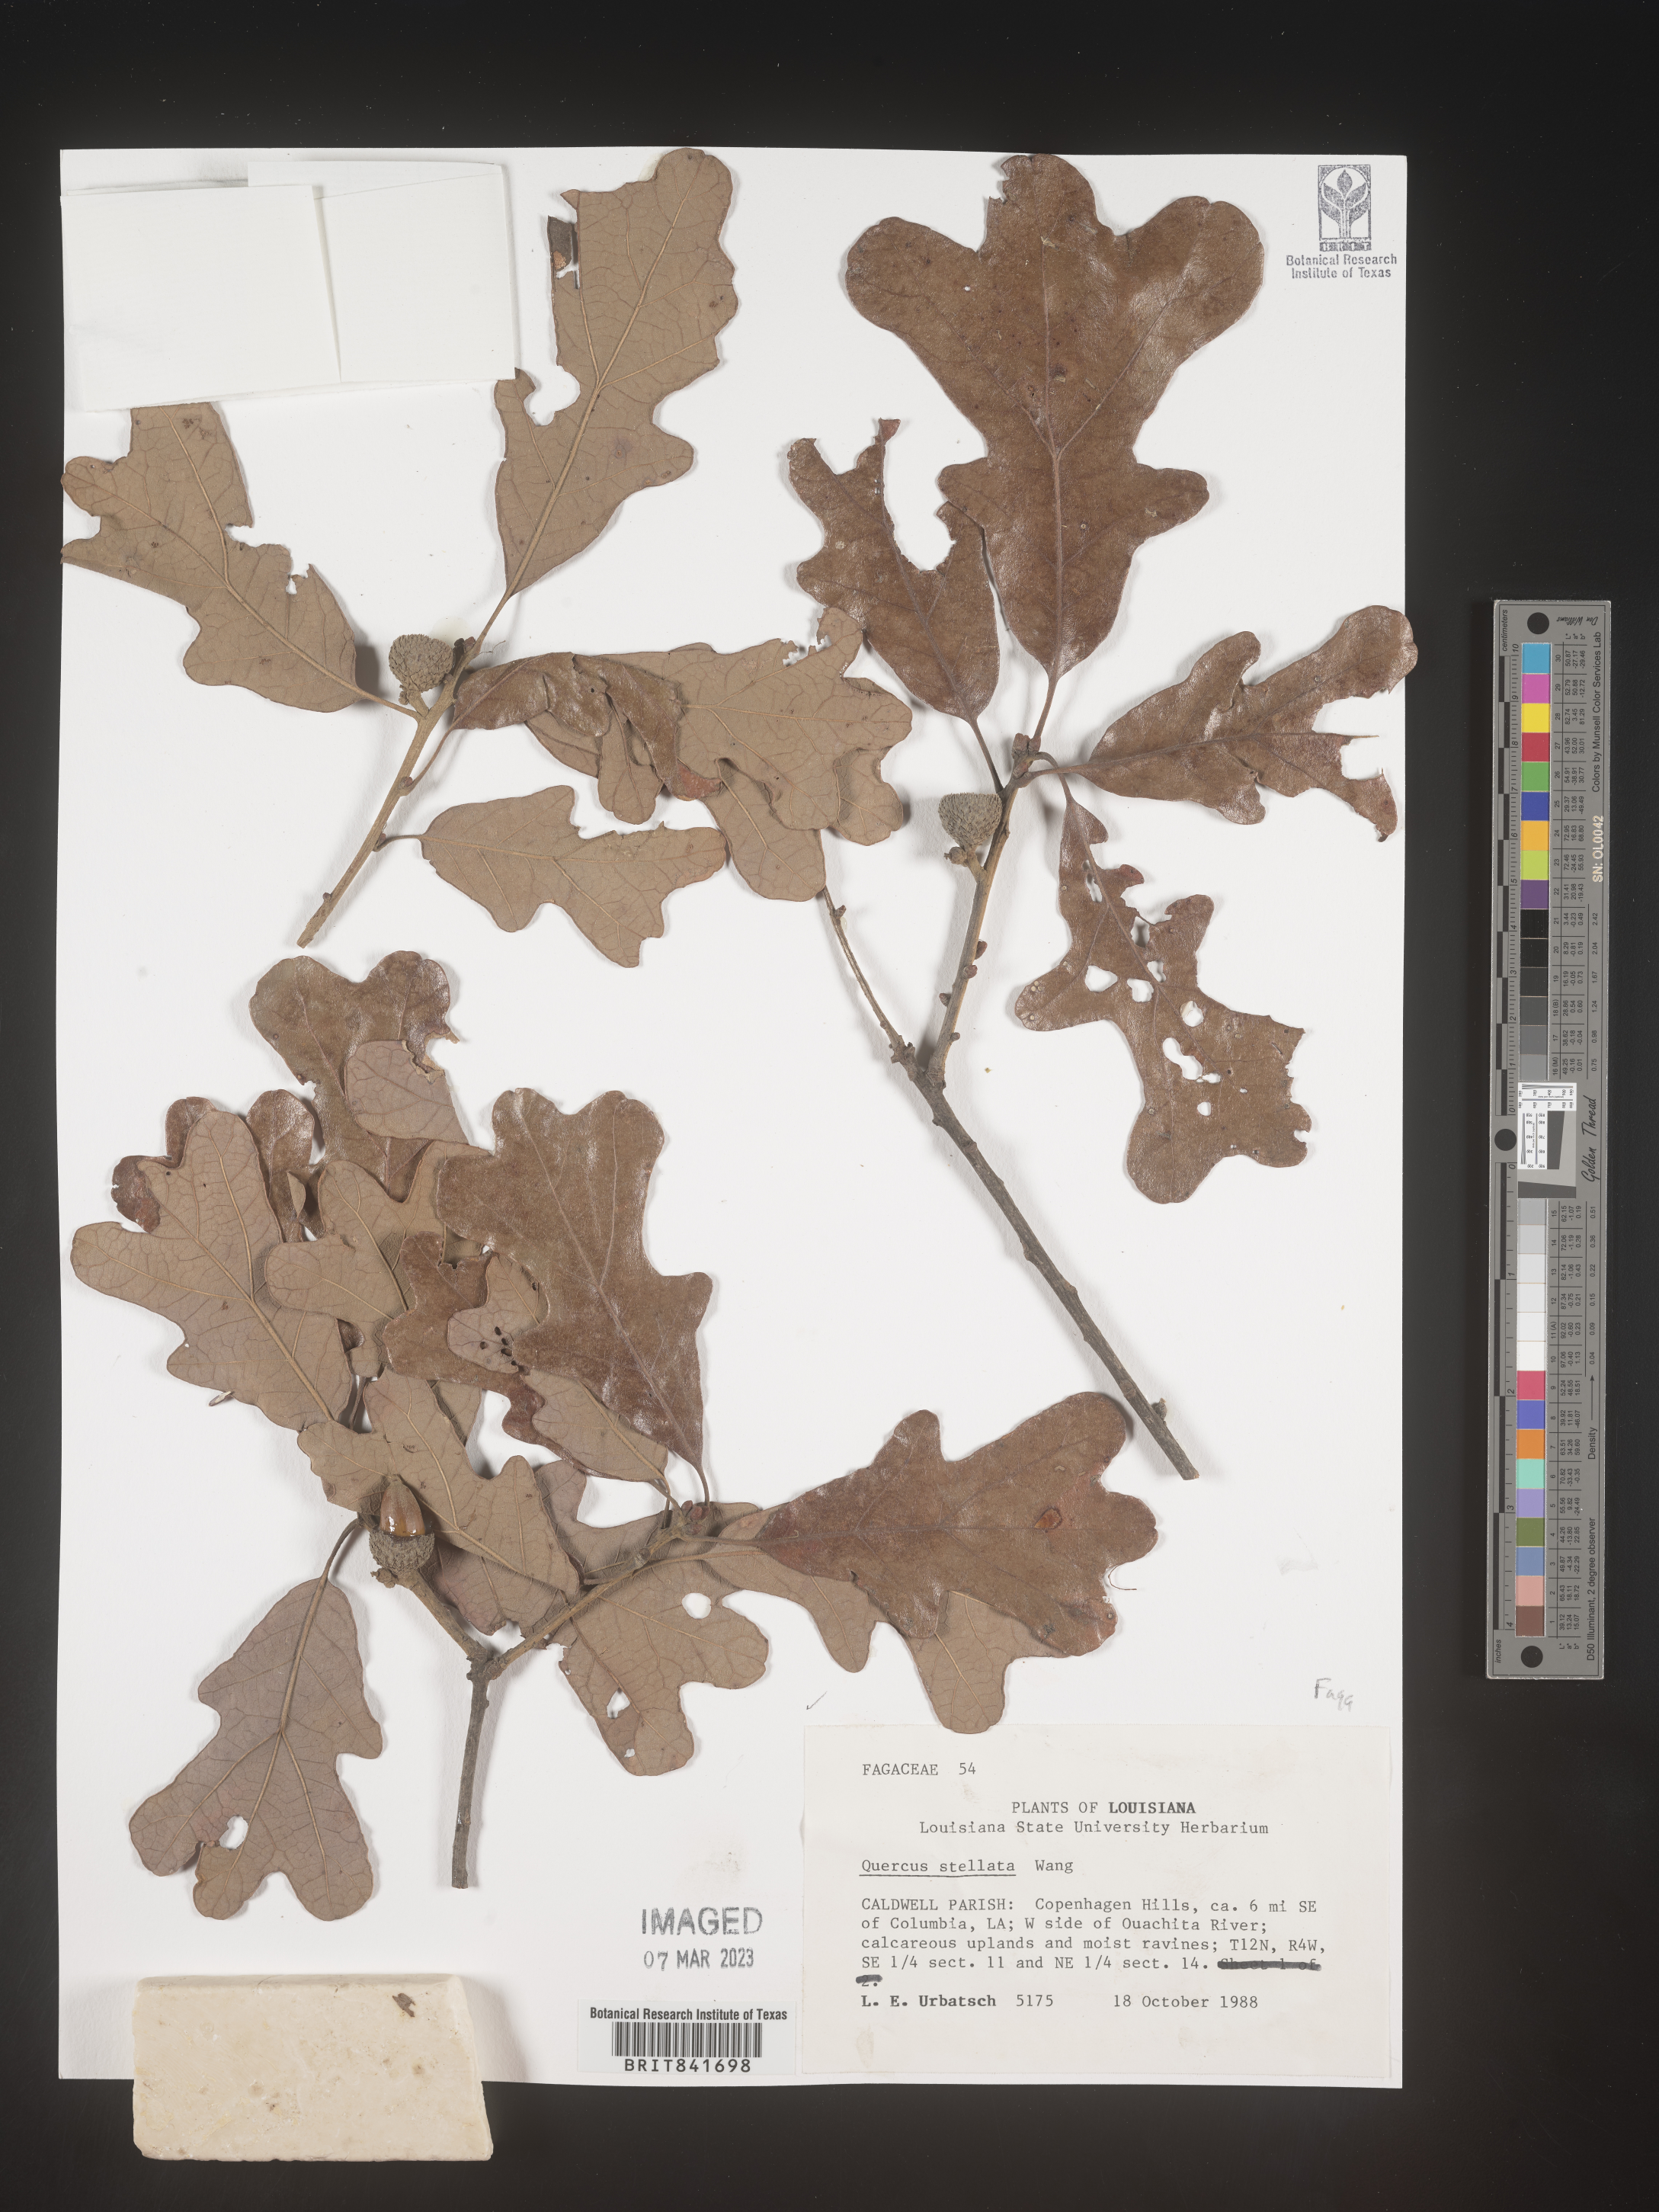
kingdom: Plantae
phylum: Tracheophyta
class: Magnoliopsida
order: Fagales
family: Fagaceae
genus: Quercus
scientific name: Quercus stellata
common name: Post oak
